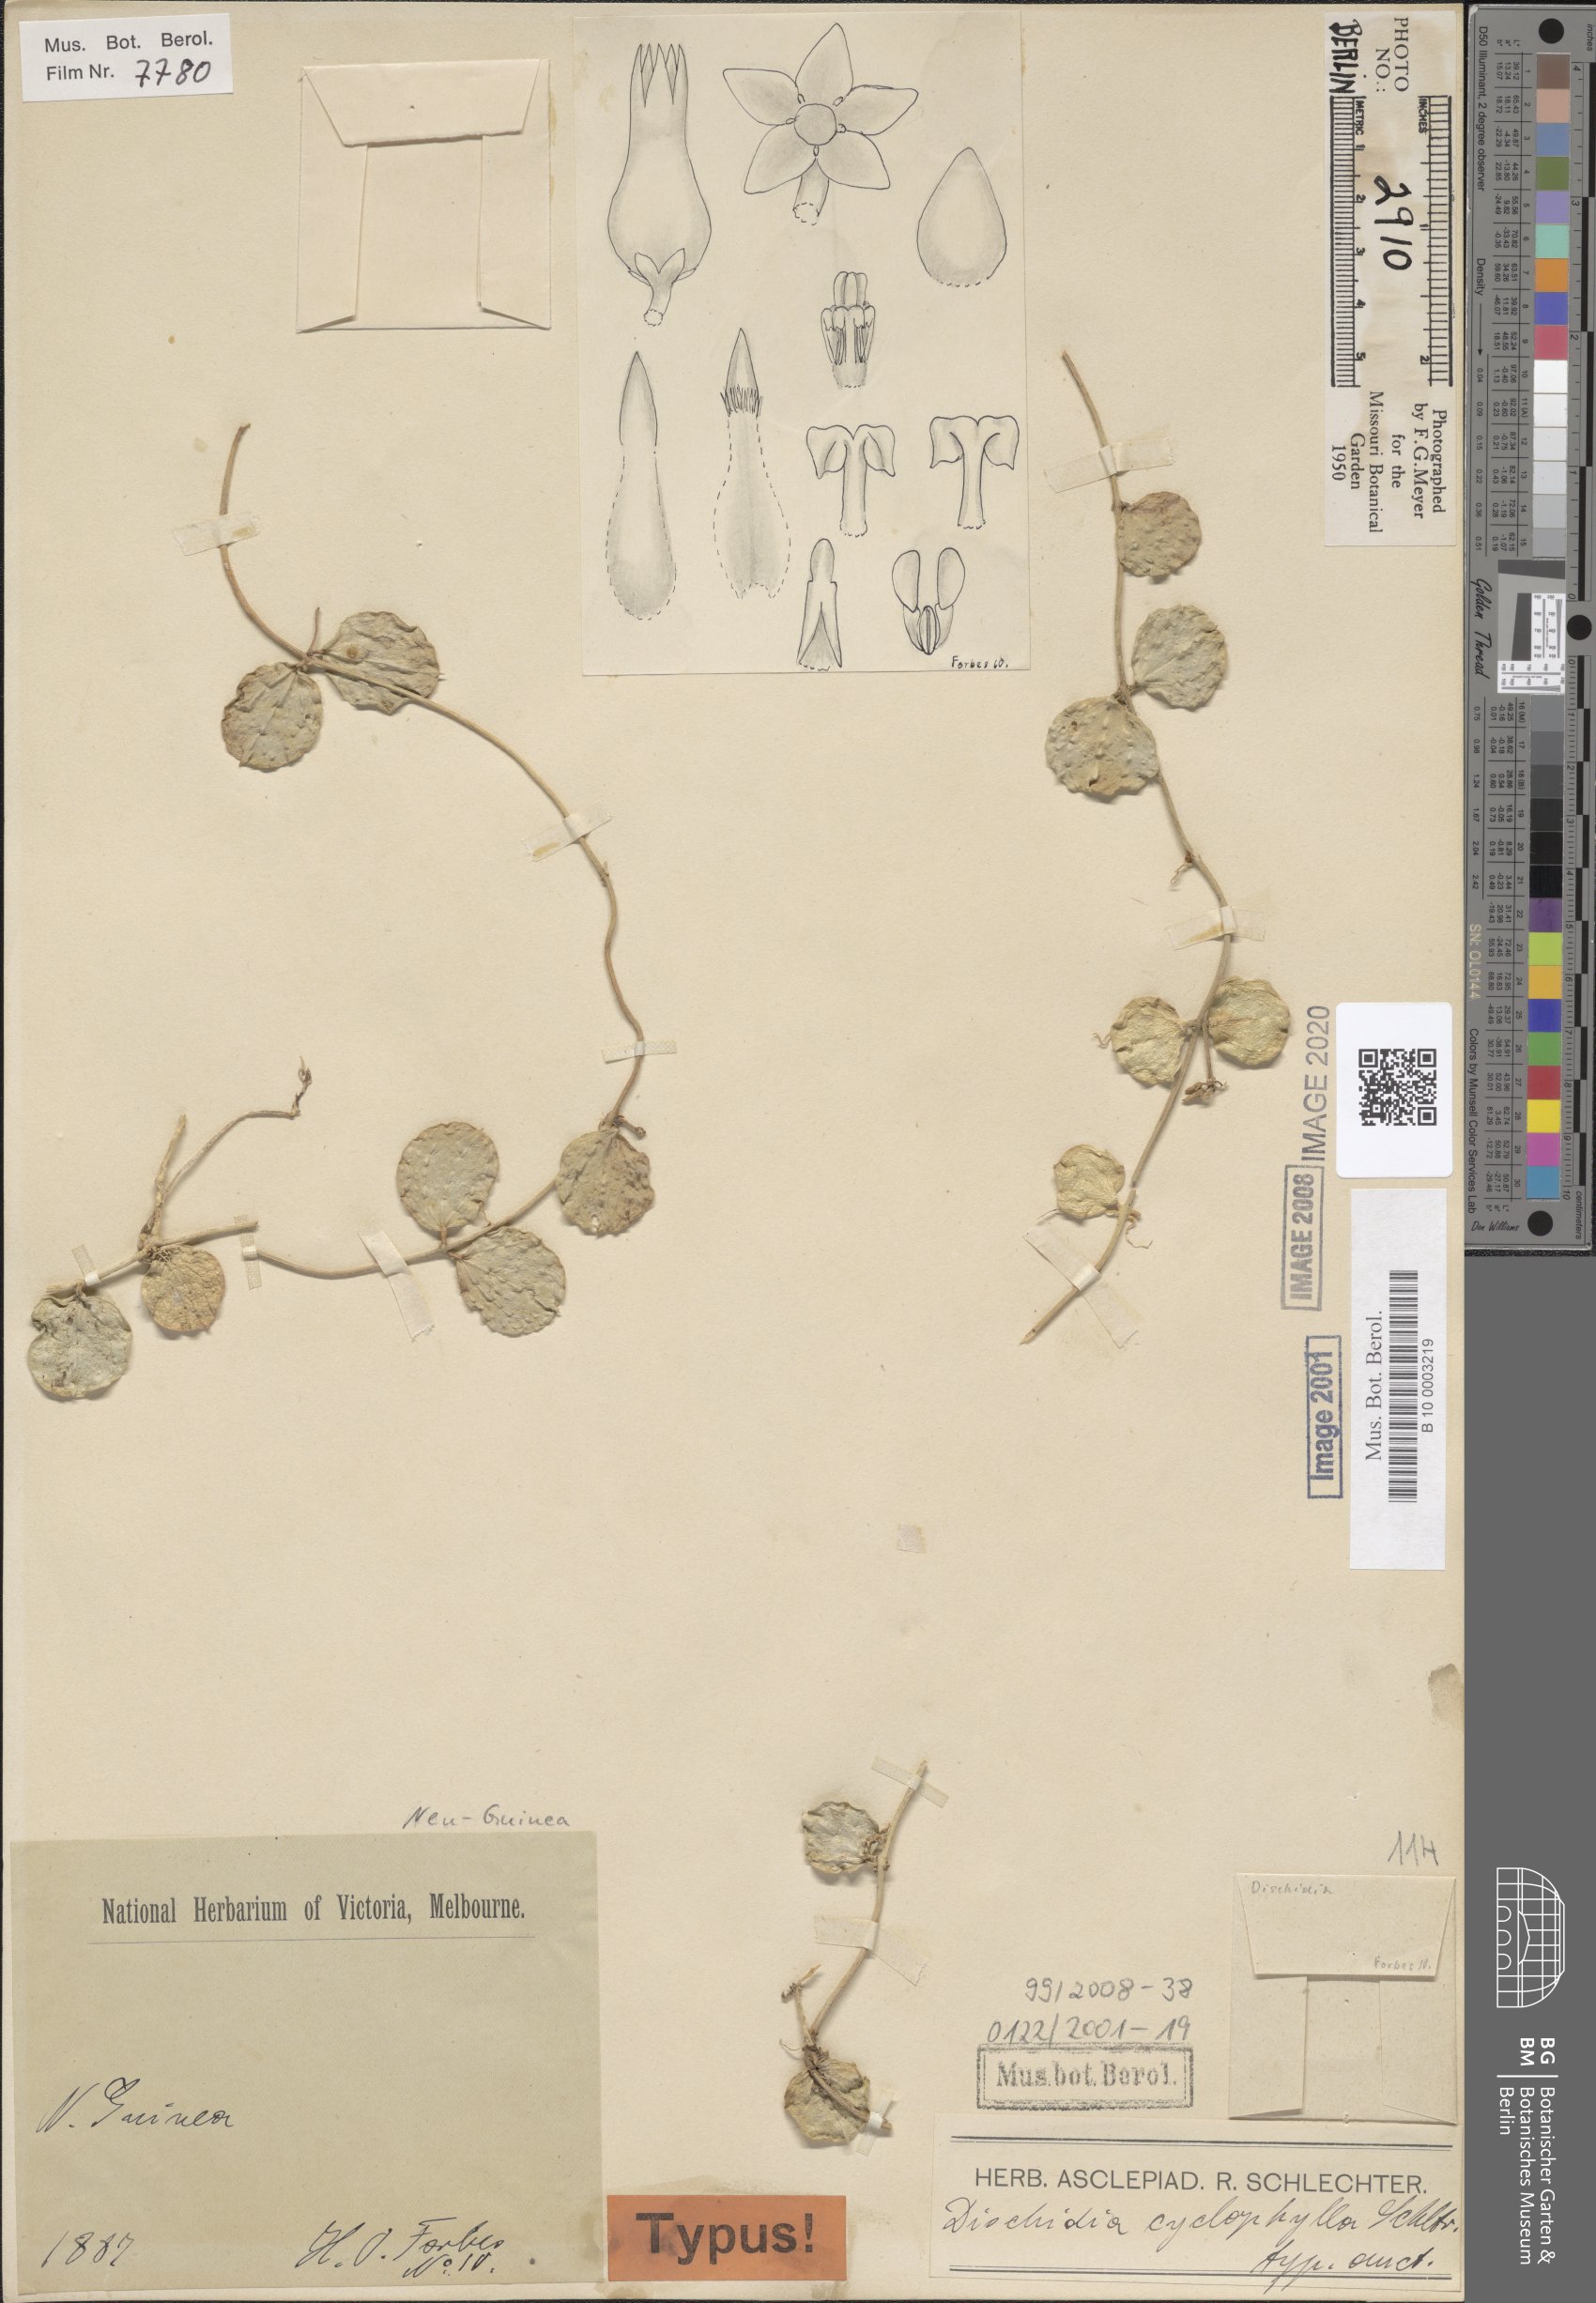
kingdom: Plantae
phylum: Tracheophyta
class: Magnoliopsida
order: Gentianales
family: Apocynaceae
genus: Dischidia
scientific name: Dischidia cyclophylla
